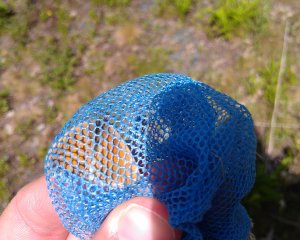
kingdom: Animalia
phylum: Arthropoda
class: Insecta
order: Lepidoptera
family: Nymphalidae
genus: Coenonympha
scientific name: Coenonympha tullia
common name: Large Heath
